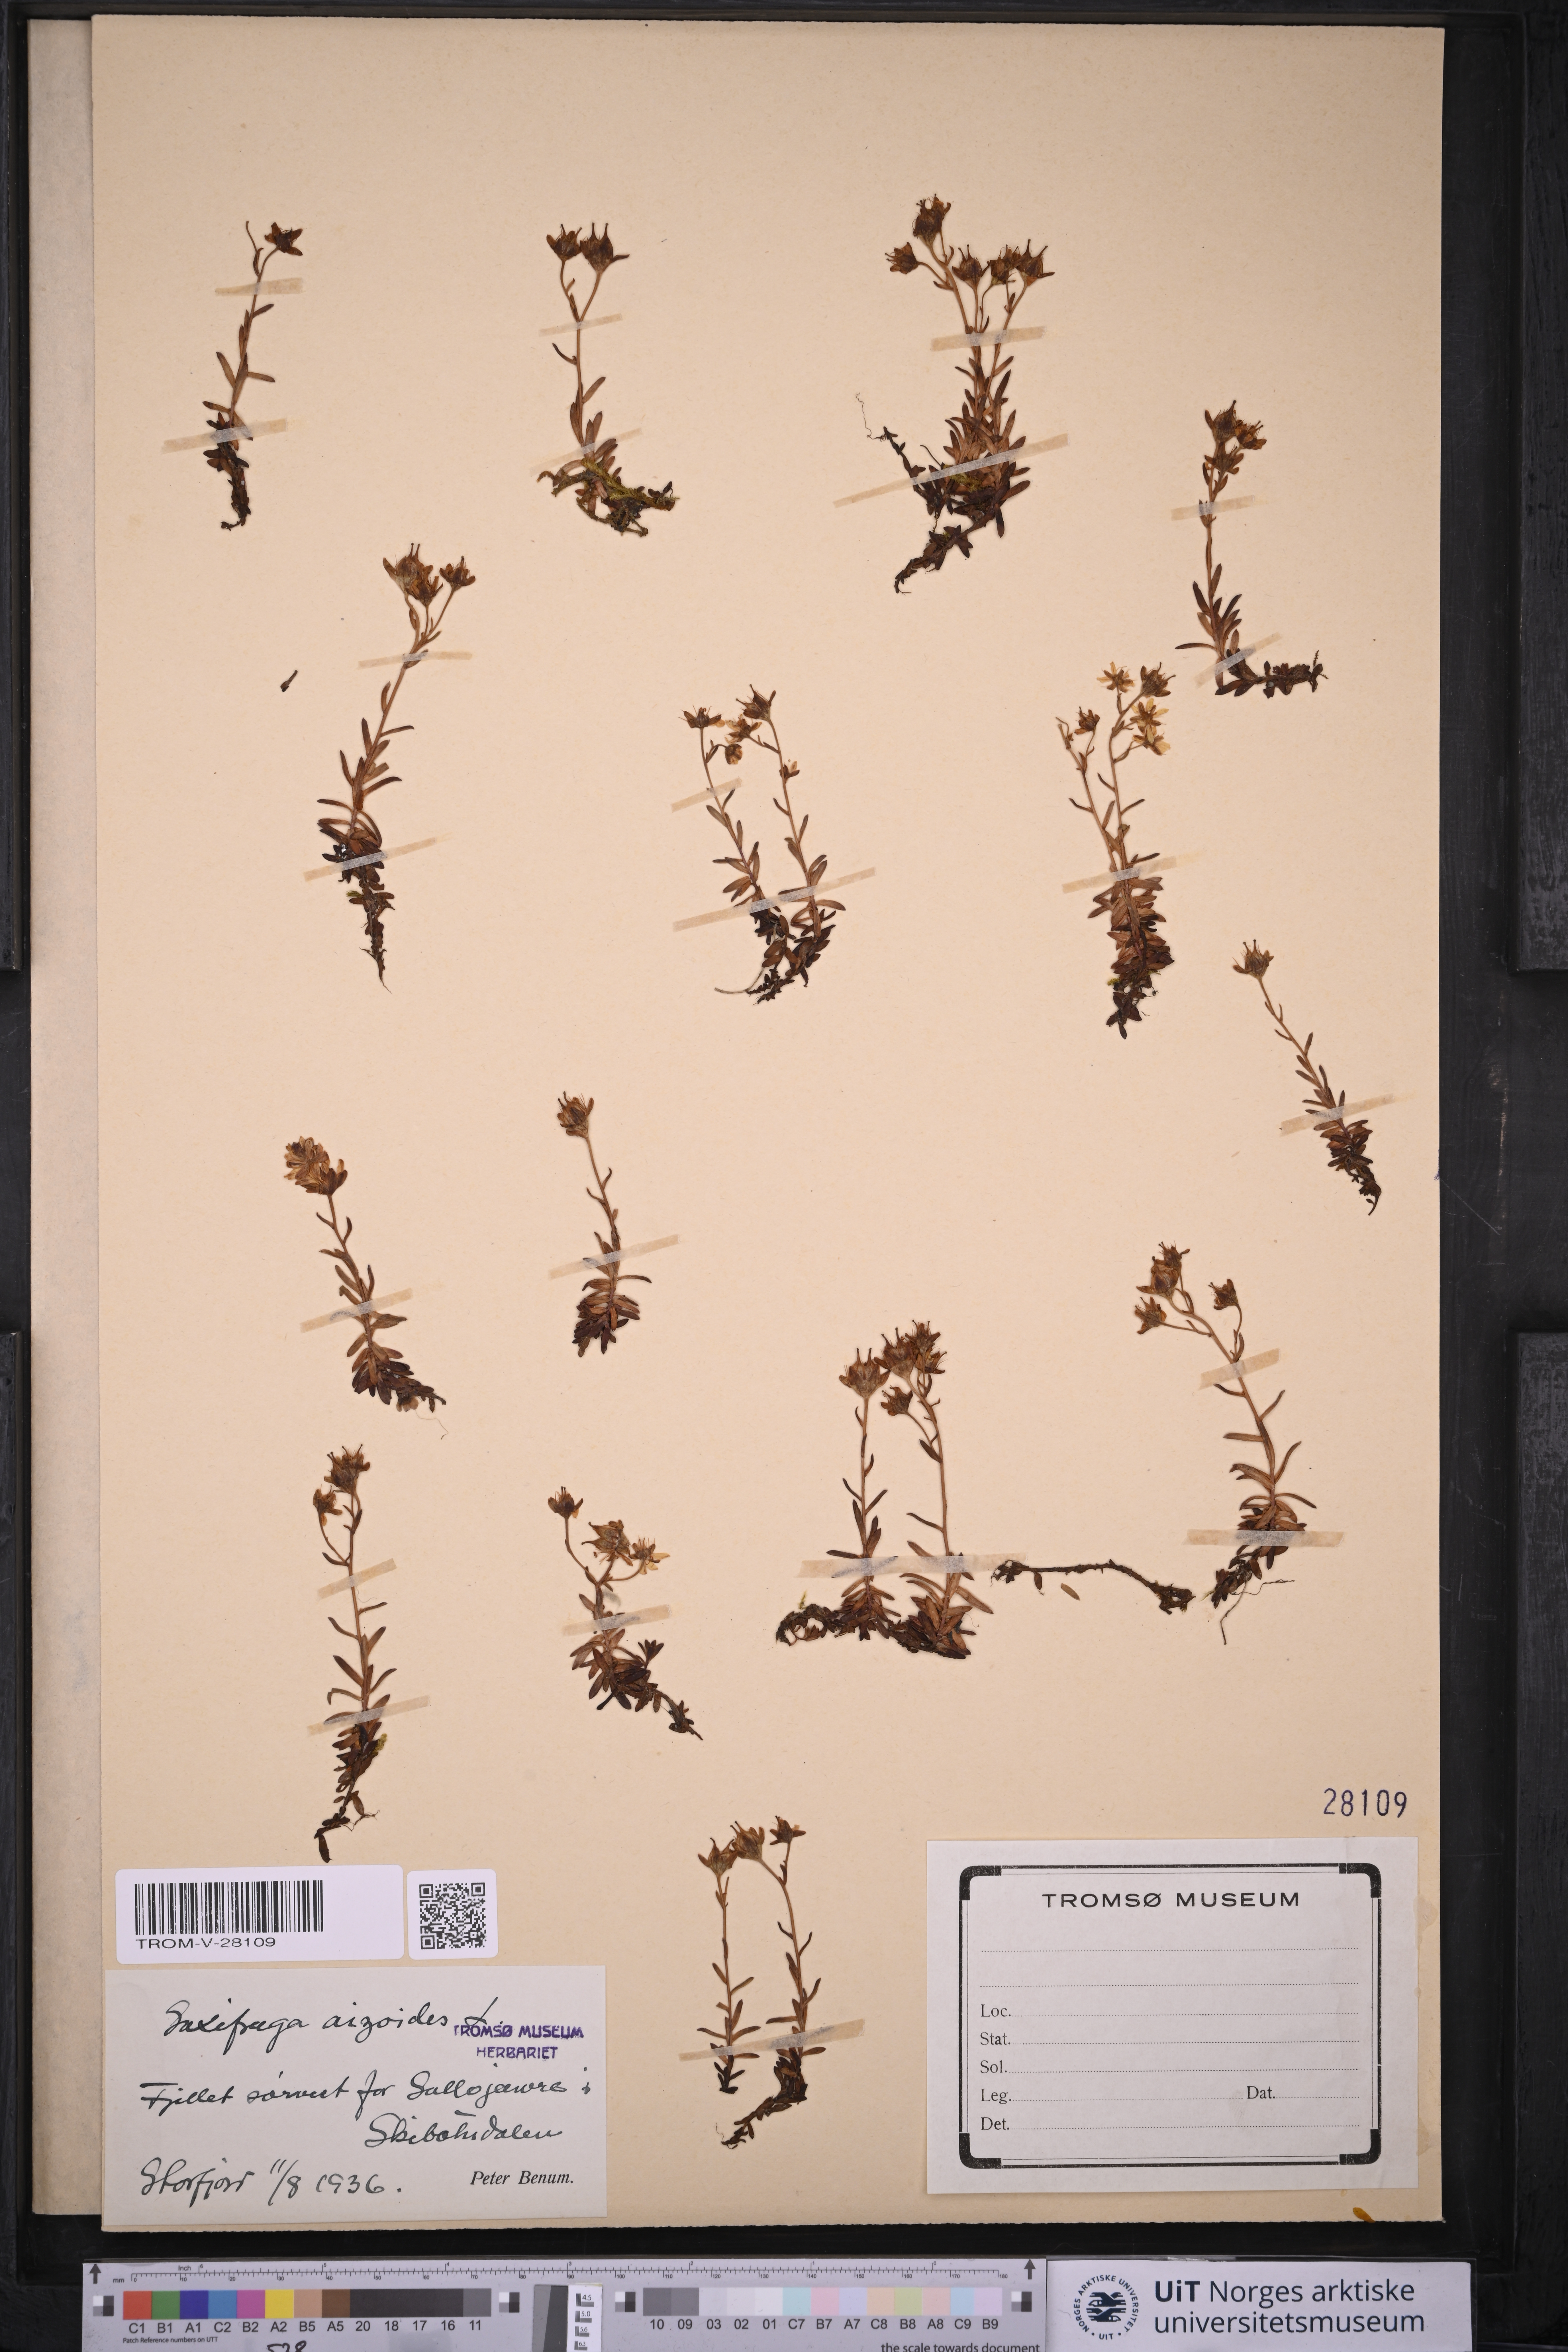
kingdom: Plantae
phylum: Tracheophyta
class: Magnoliopsida
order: Saxifragales
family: Saxifragaceae
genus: Saxifraga
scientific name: Saxifraga aizoides
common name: Yellow mountain saxifrage
